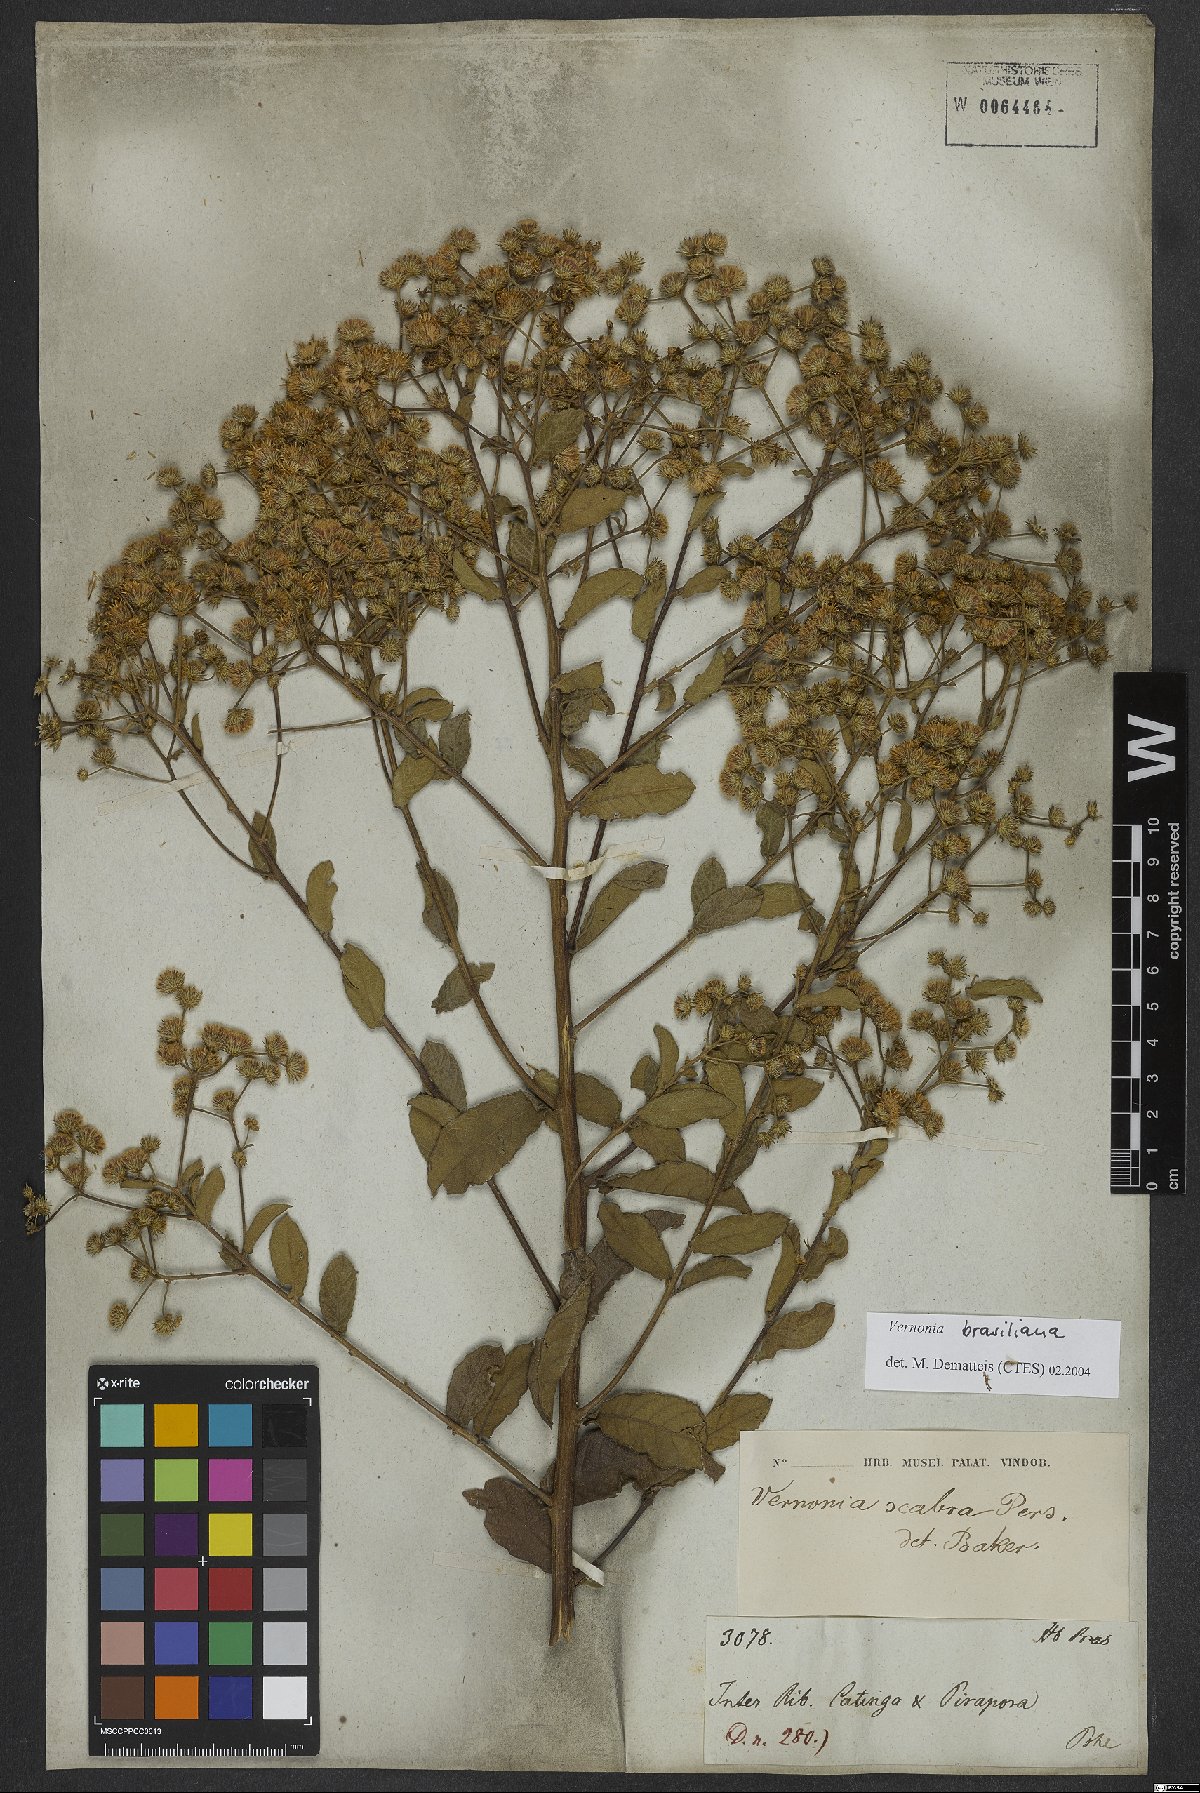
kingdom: Plantae
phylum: Tracheophyta
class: Magnoliopsida
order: Asterales
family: Asteraceae
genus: Vernonanthura
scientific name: Vernonanthura brasiliana
